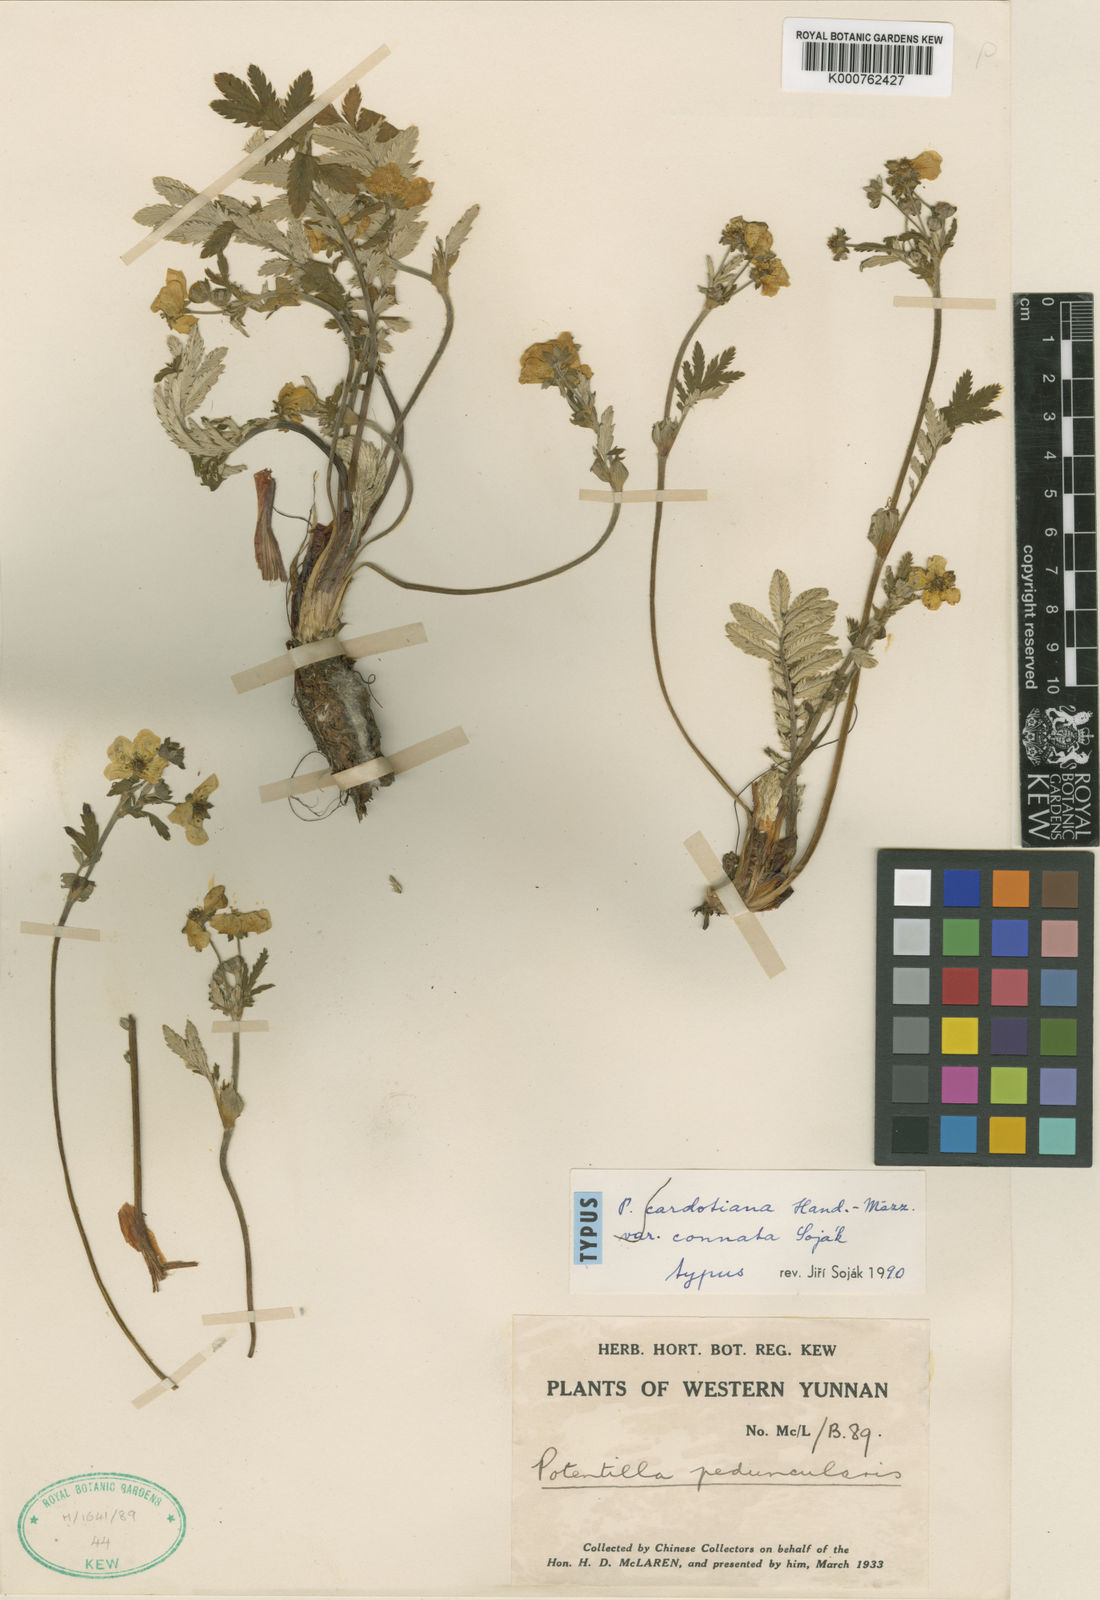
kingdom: Plantae
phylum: Tracheophyta
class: Magnoliopsida
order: Rosales
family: Rosaceae
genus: Argentina
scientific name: Argentina cardotiana
